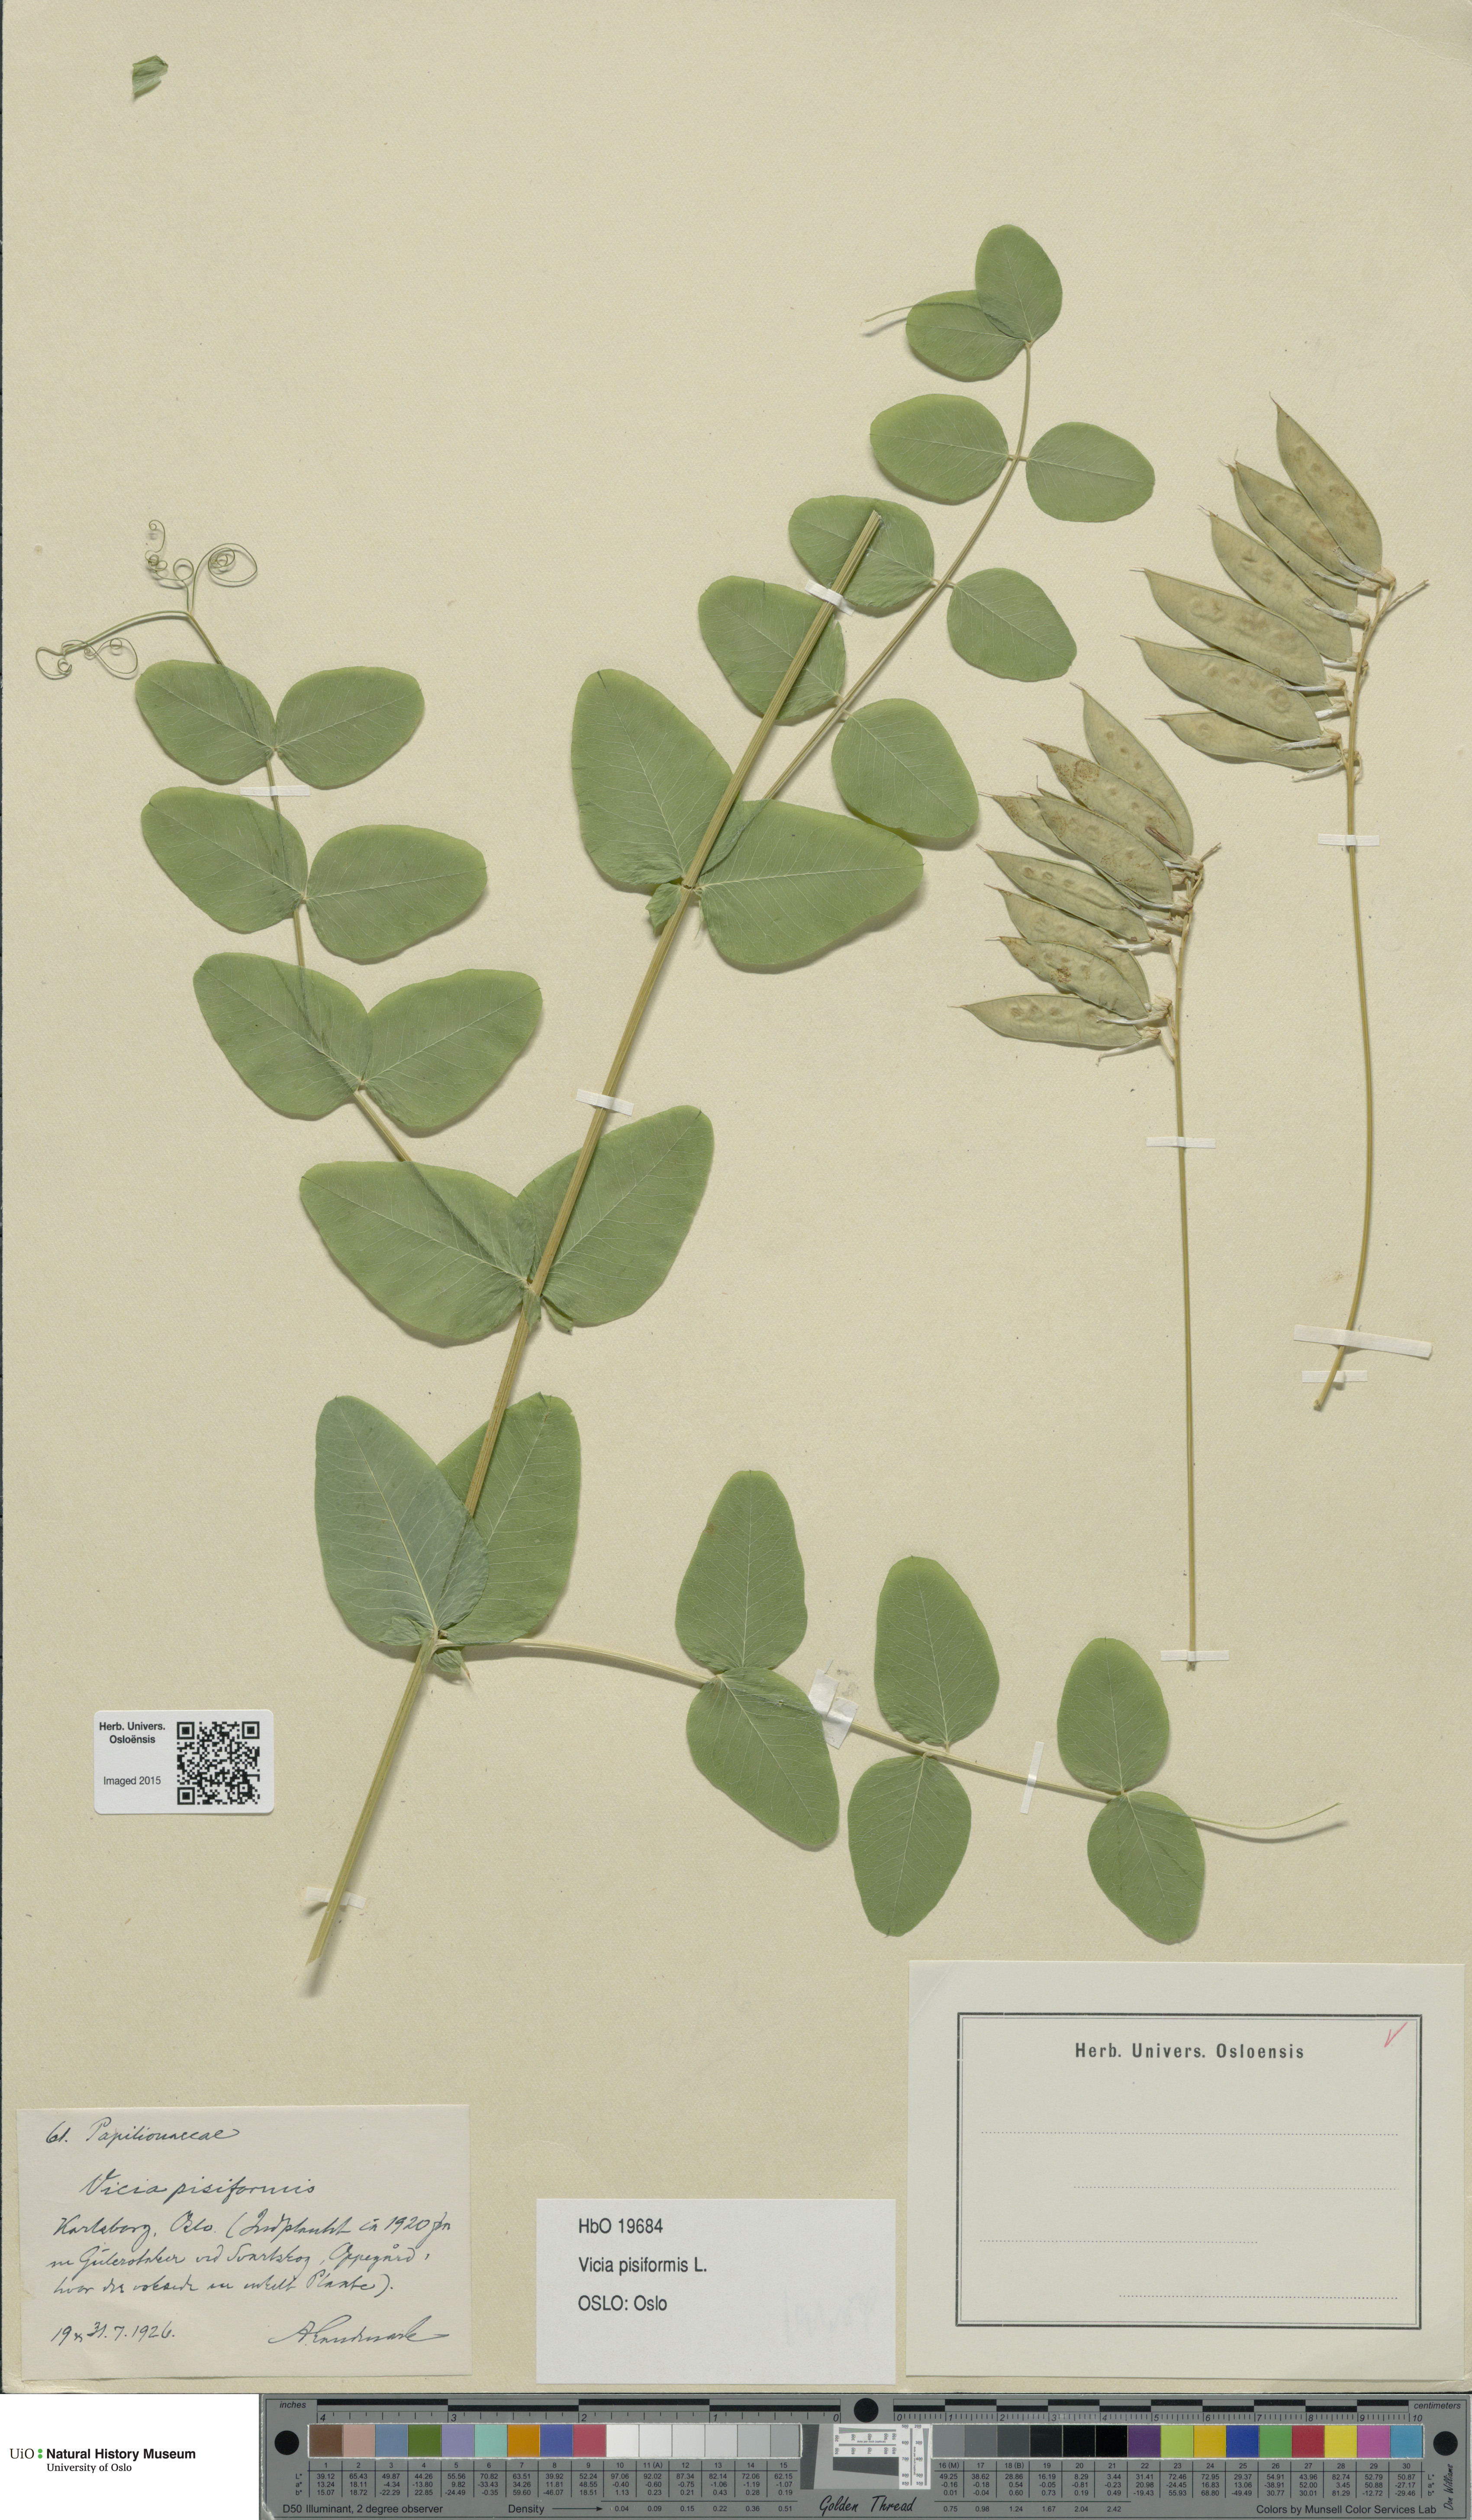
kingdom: Plantae
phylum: Tracheophyta
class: Magnoliopsida
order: Fabales
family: Fabaceae
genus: Vicia
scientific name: Vicia pisiformis
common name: Pale-flower vetch
